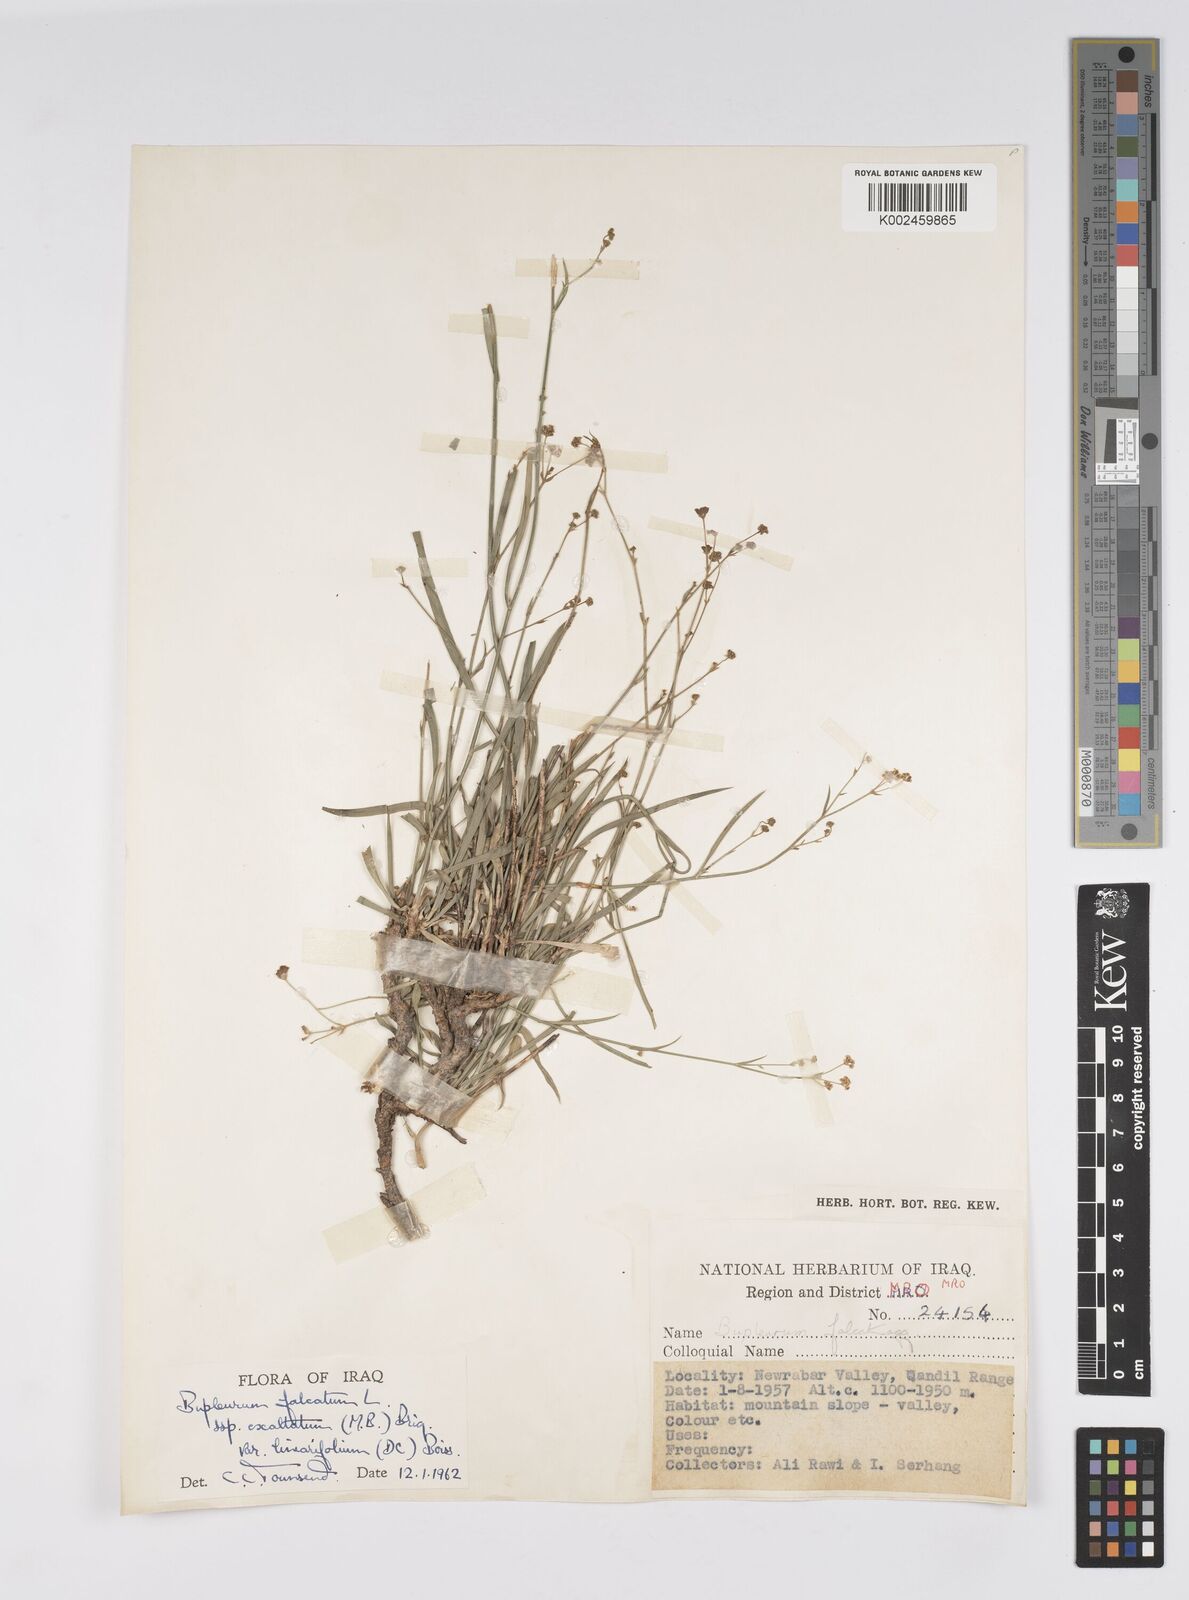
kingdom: Plantae
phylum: Tracheophyta
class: Magnoliopsida
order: Apiales
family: Apiaceae
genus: Bupleurum
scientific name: Bupleurum falcatum
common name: Sickle-leaved hare's-ear
